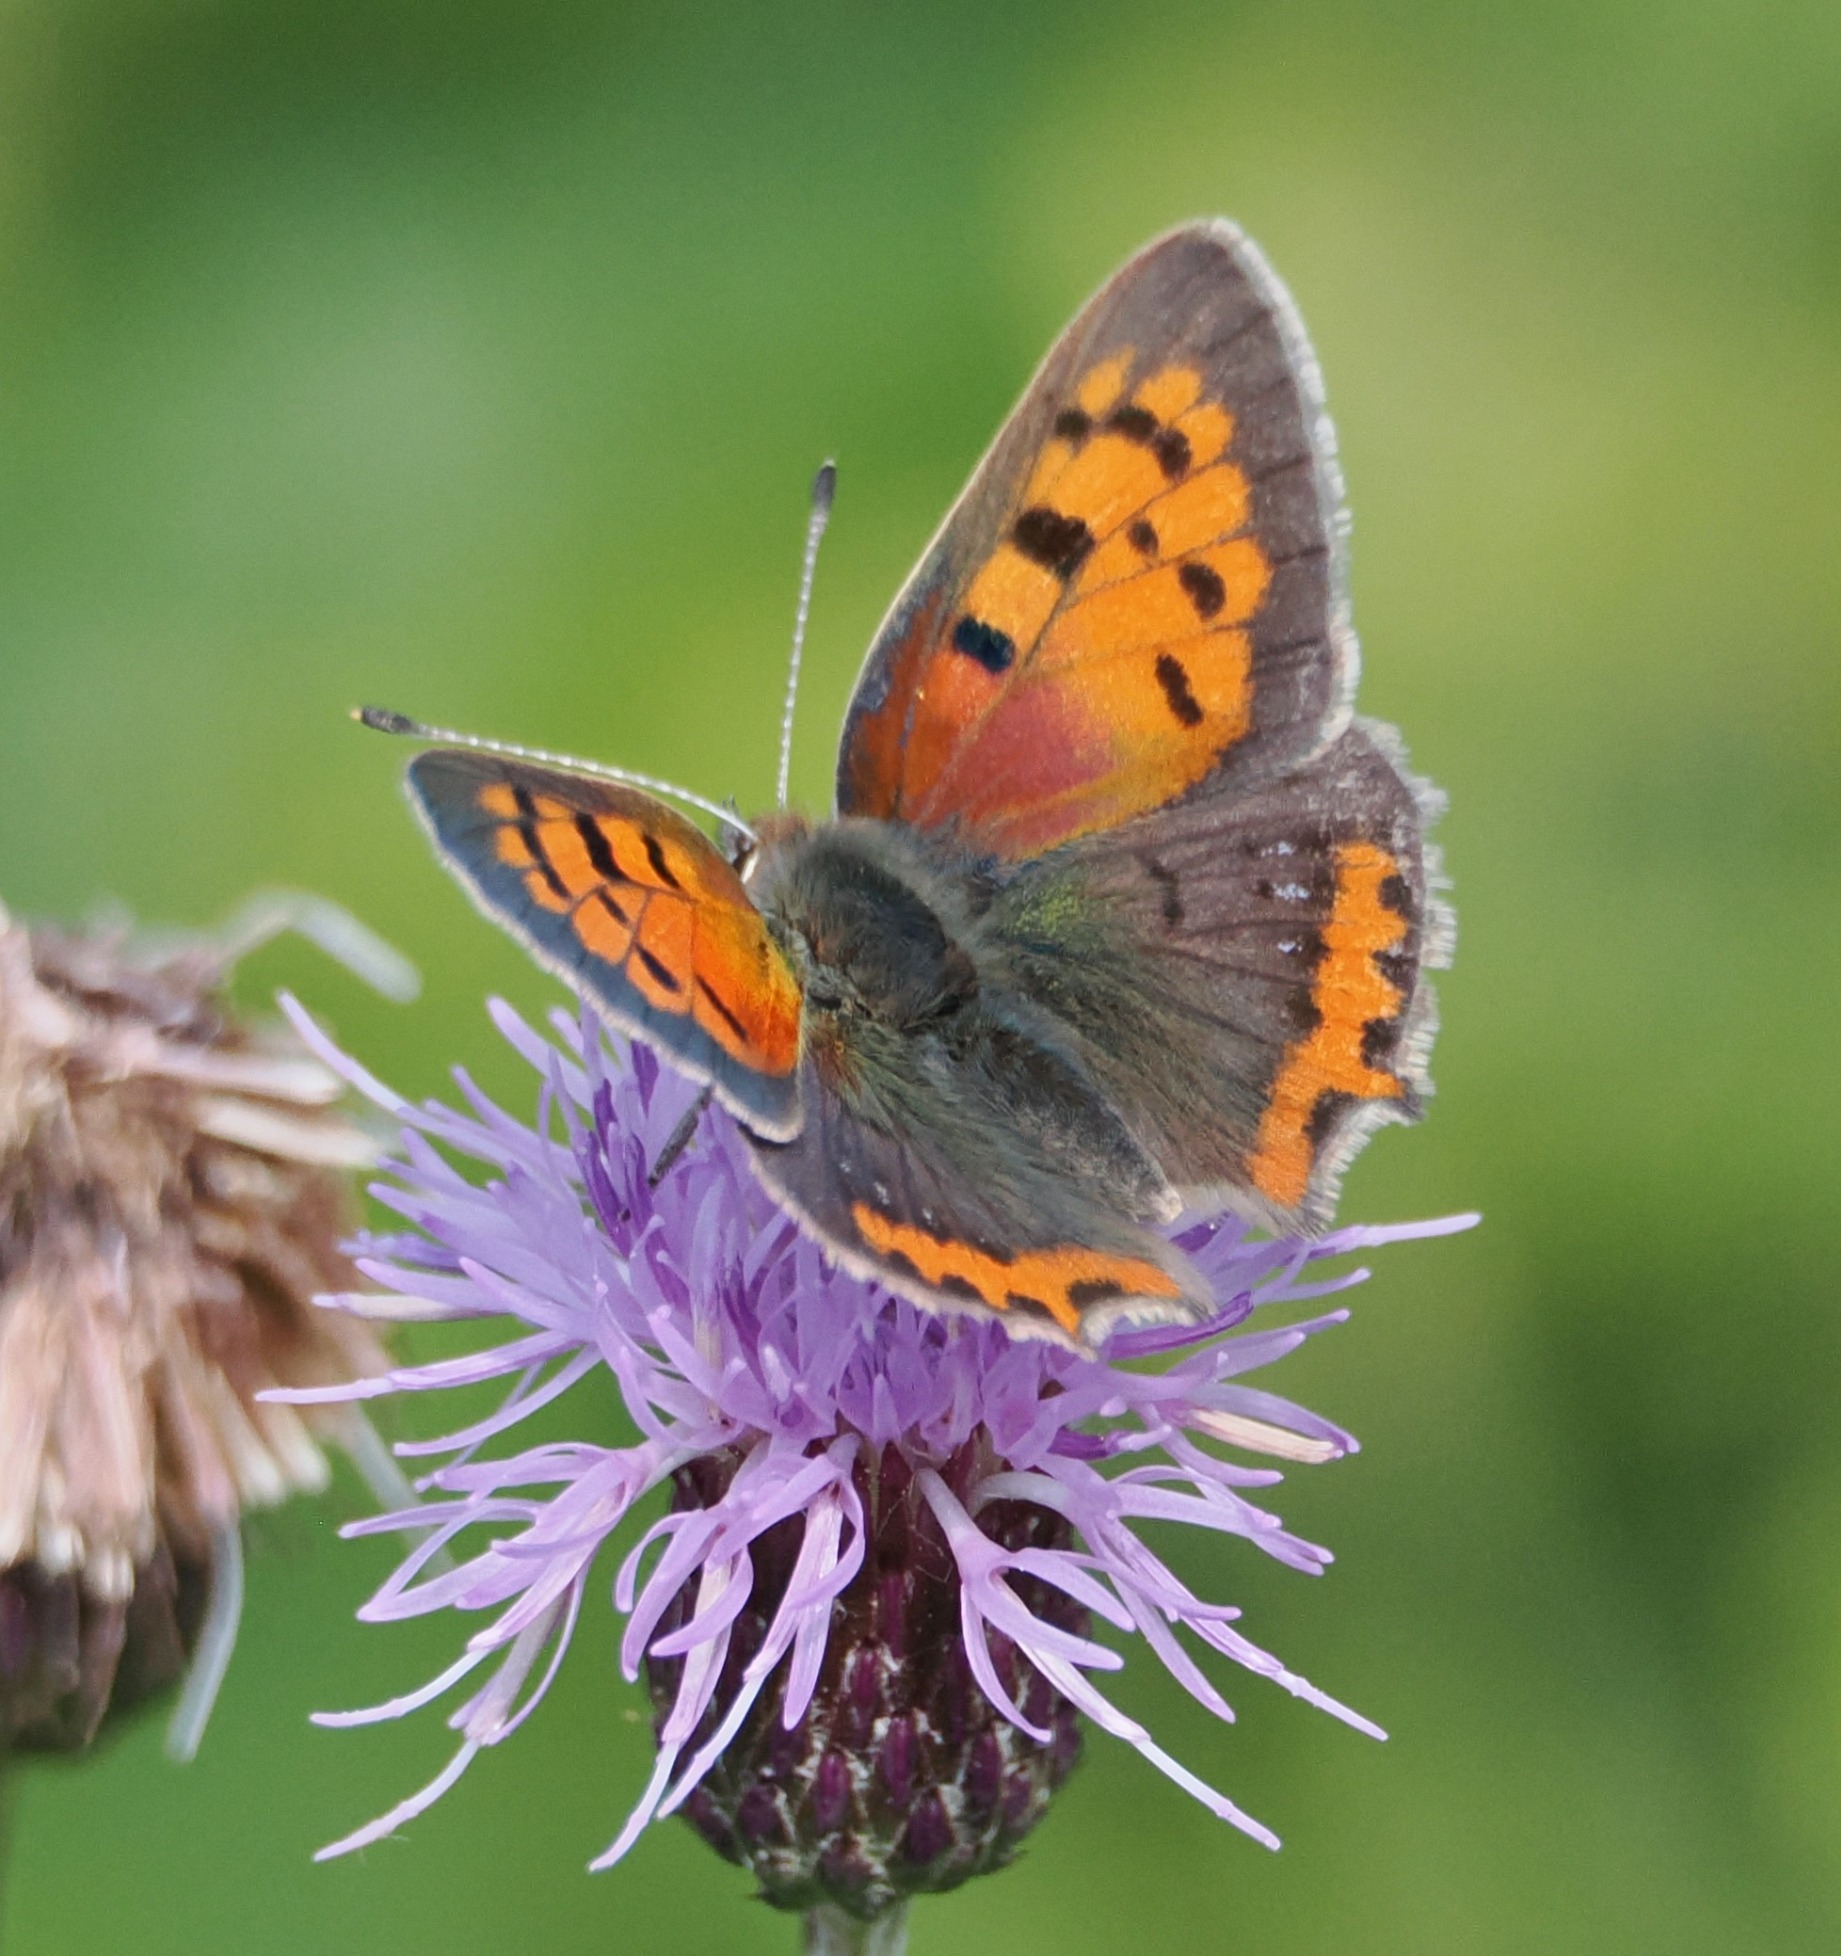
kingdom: Animalia
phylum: Arthropoda
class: Insecta
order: Lepidoptera
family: Lycaenidae
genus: Lycaena
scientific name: Lycaena phlaeas
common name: Lille ildfugl
